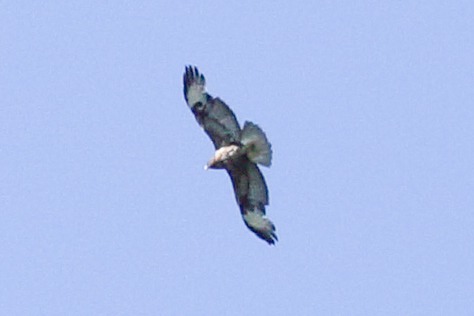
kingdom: Animalia
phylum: Chordata
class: Aves
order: Accipitriformes
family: Accipitridae
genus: Buteo
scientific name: Buteo buteo
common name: Musvåge
